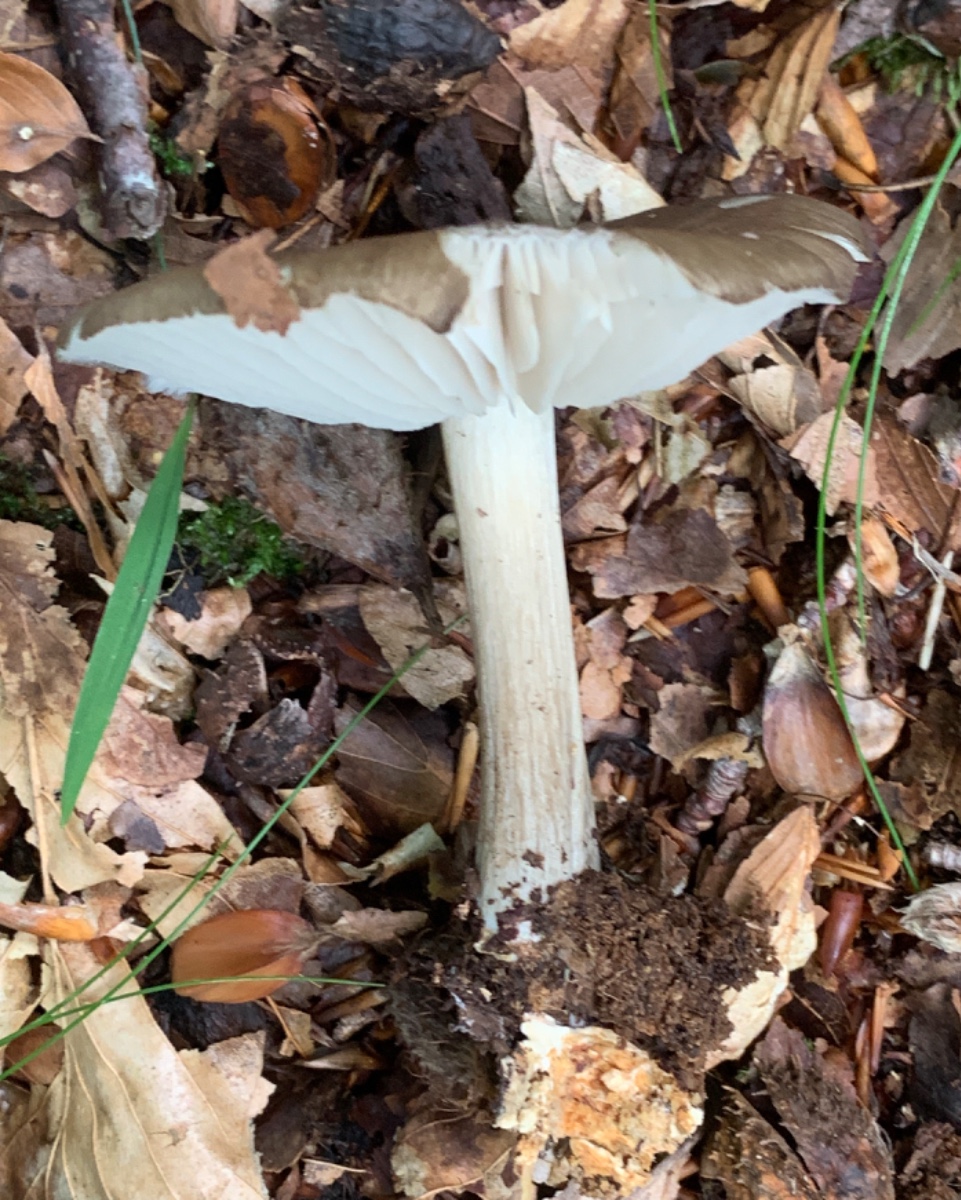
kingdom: Fungi
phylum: Basidiomycota
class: Agaricomycetes
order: Agaricales
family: Tricholomataceae
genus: Megacollybia
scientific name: Megacollybia platyphylla
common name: bredbladet væbnerhat
